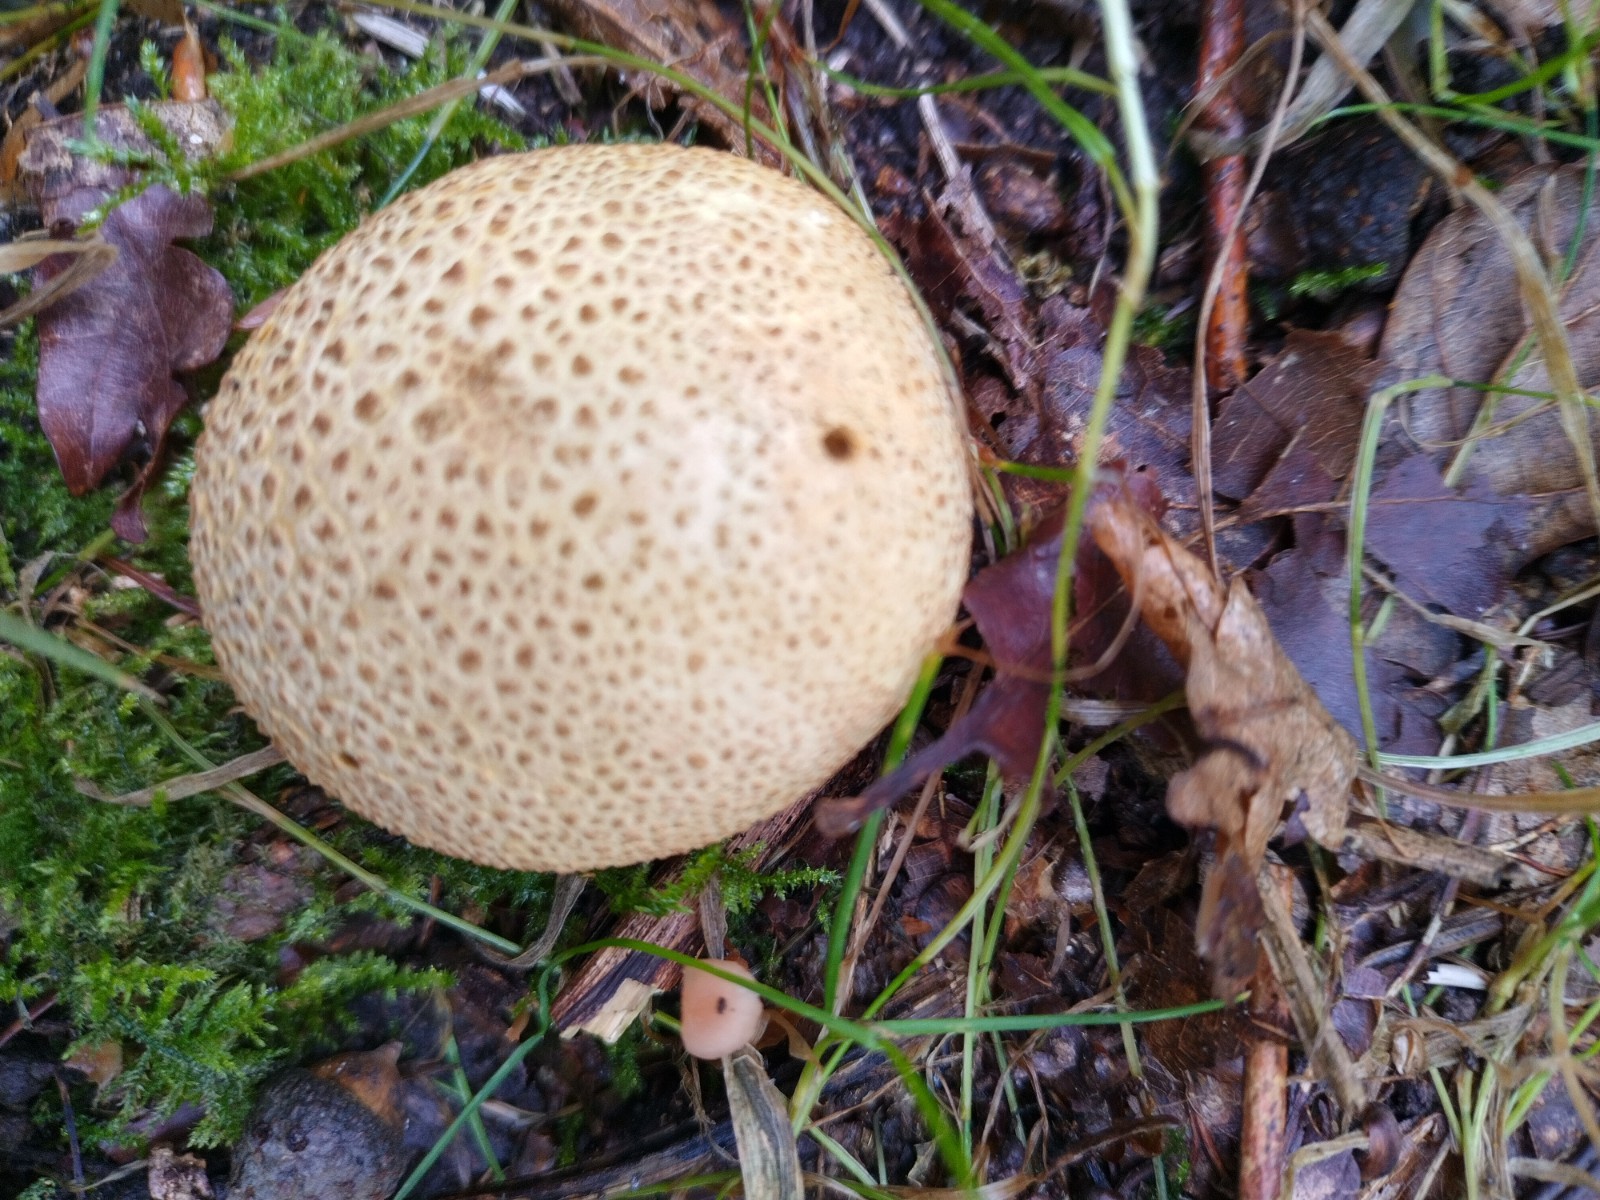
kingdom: Fungi
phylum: Basidiomycota
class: Agaricomycetes
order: Boletales
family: Sclerodermataceae
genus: Scleroderma
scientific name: Scleroderma citrinum
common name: almindelig bruskbold
